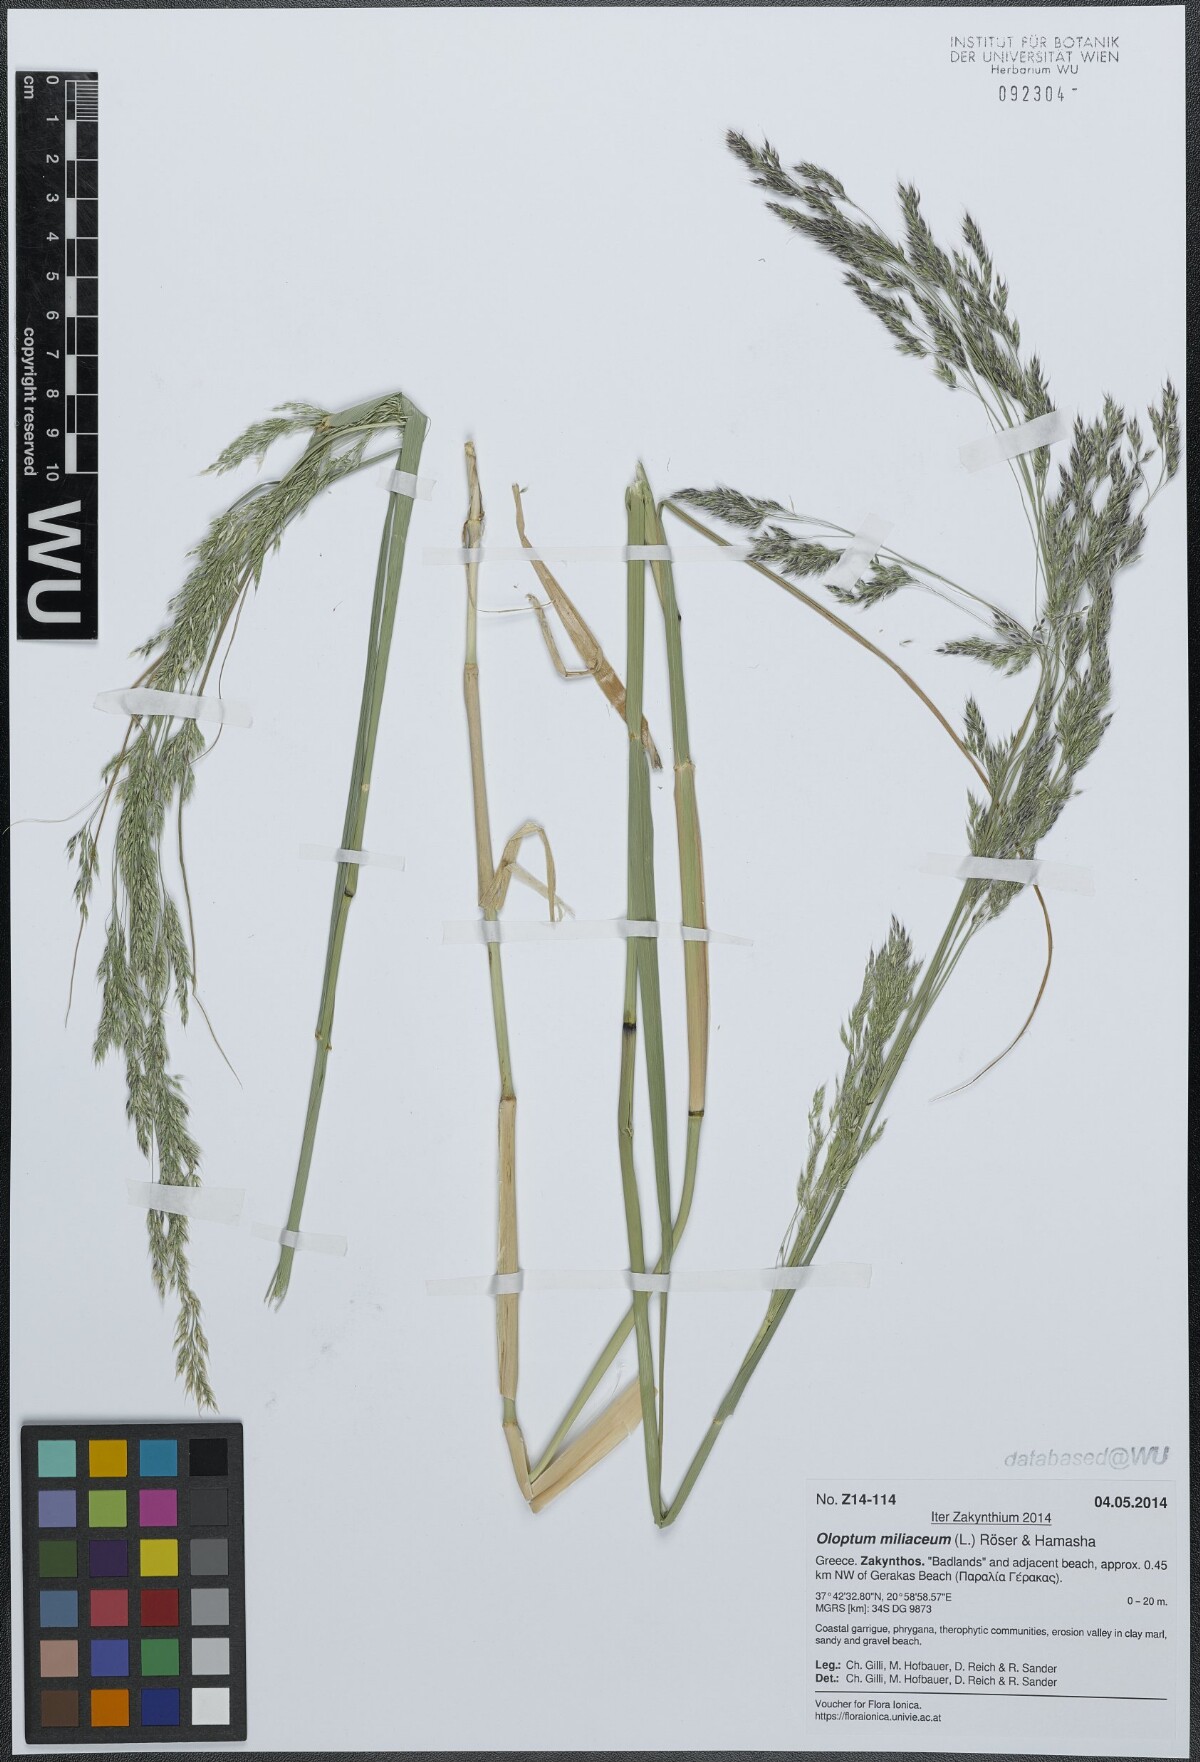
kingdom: Plantae
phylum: Tracheophyta
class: Liliopsida
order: Poales
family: Poaceae
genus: Oloptum
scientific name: Oloptum miliaceum
